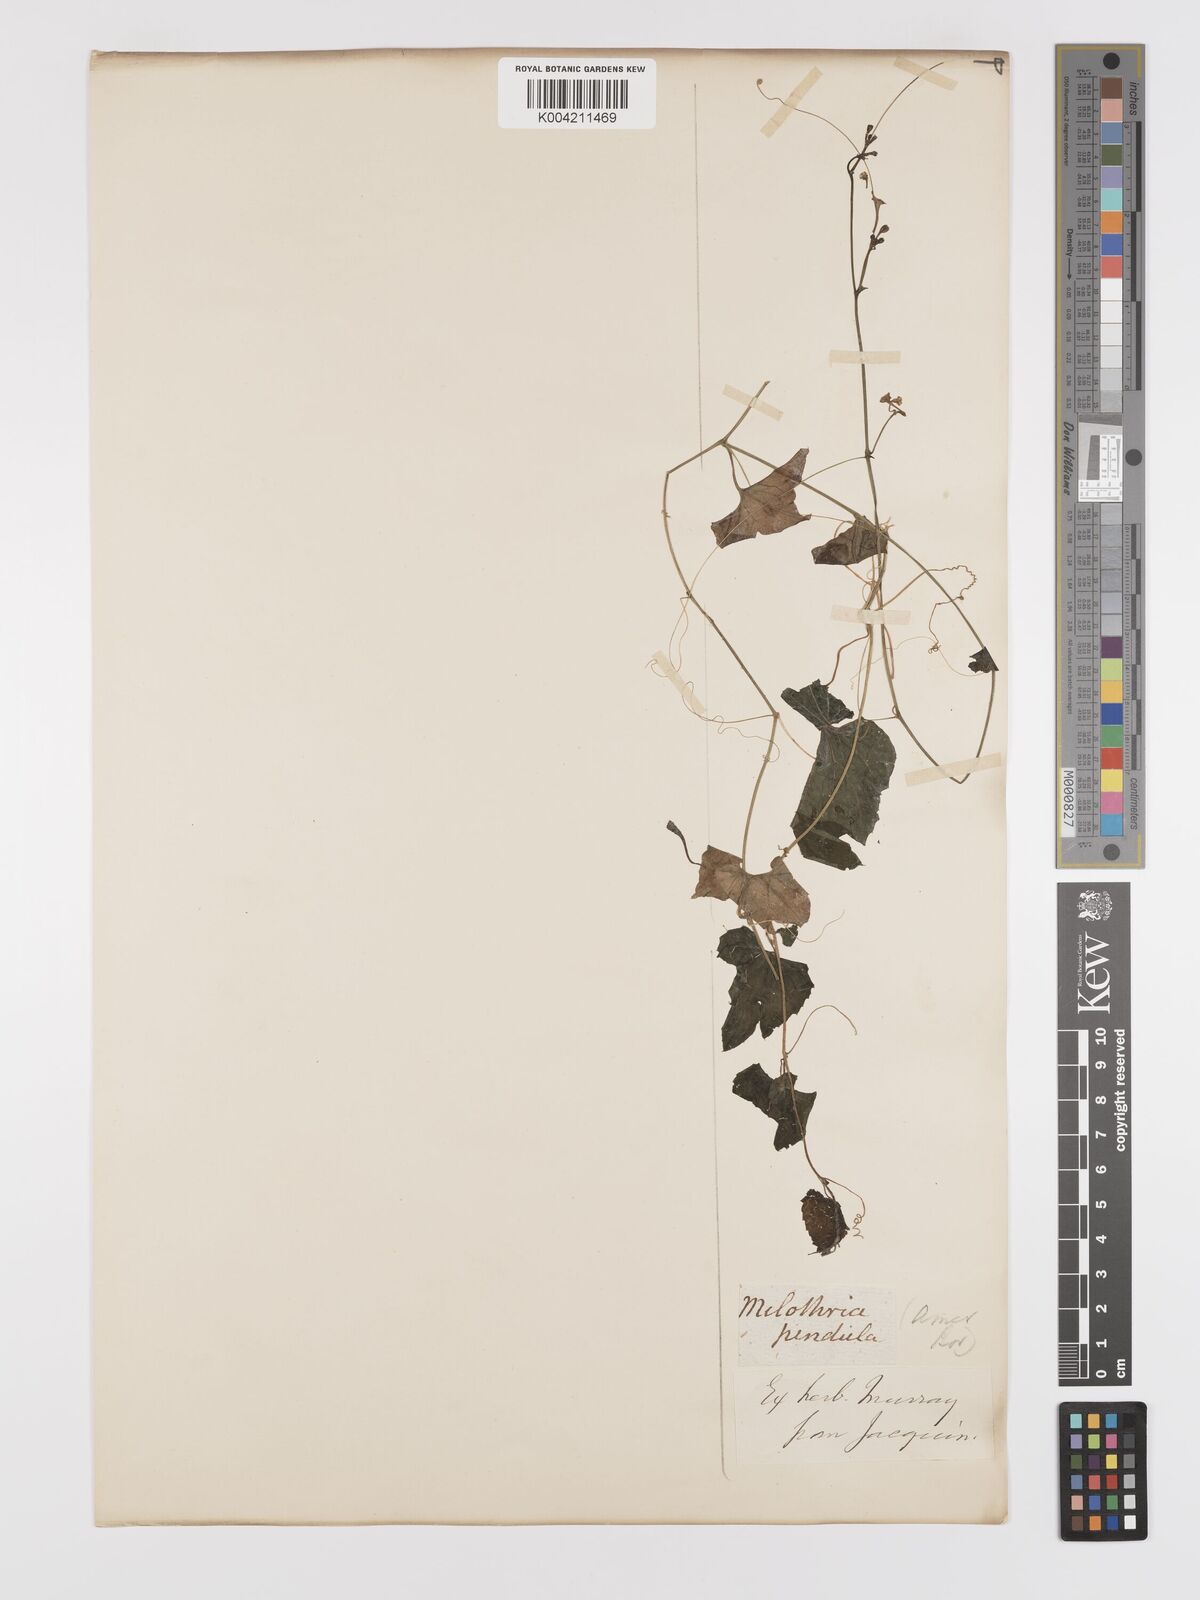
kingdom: Plantae
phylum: Tracheophyta
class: Magnoliopsida
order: Cucurbitales
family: Cucurbitaceae
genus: Melothria
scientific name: Melothria pendula
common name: Creeping-cucumber
